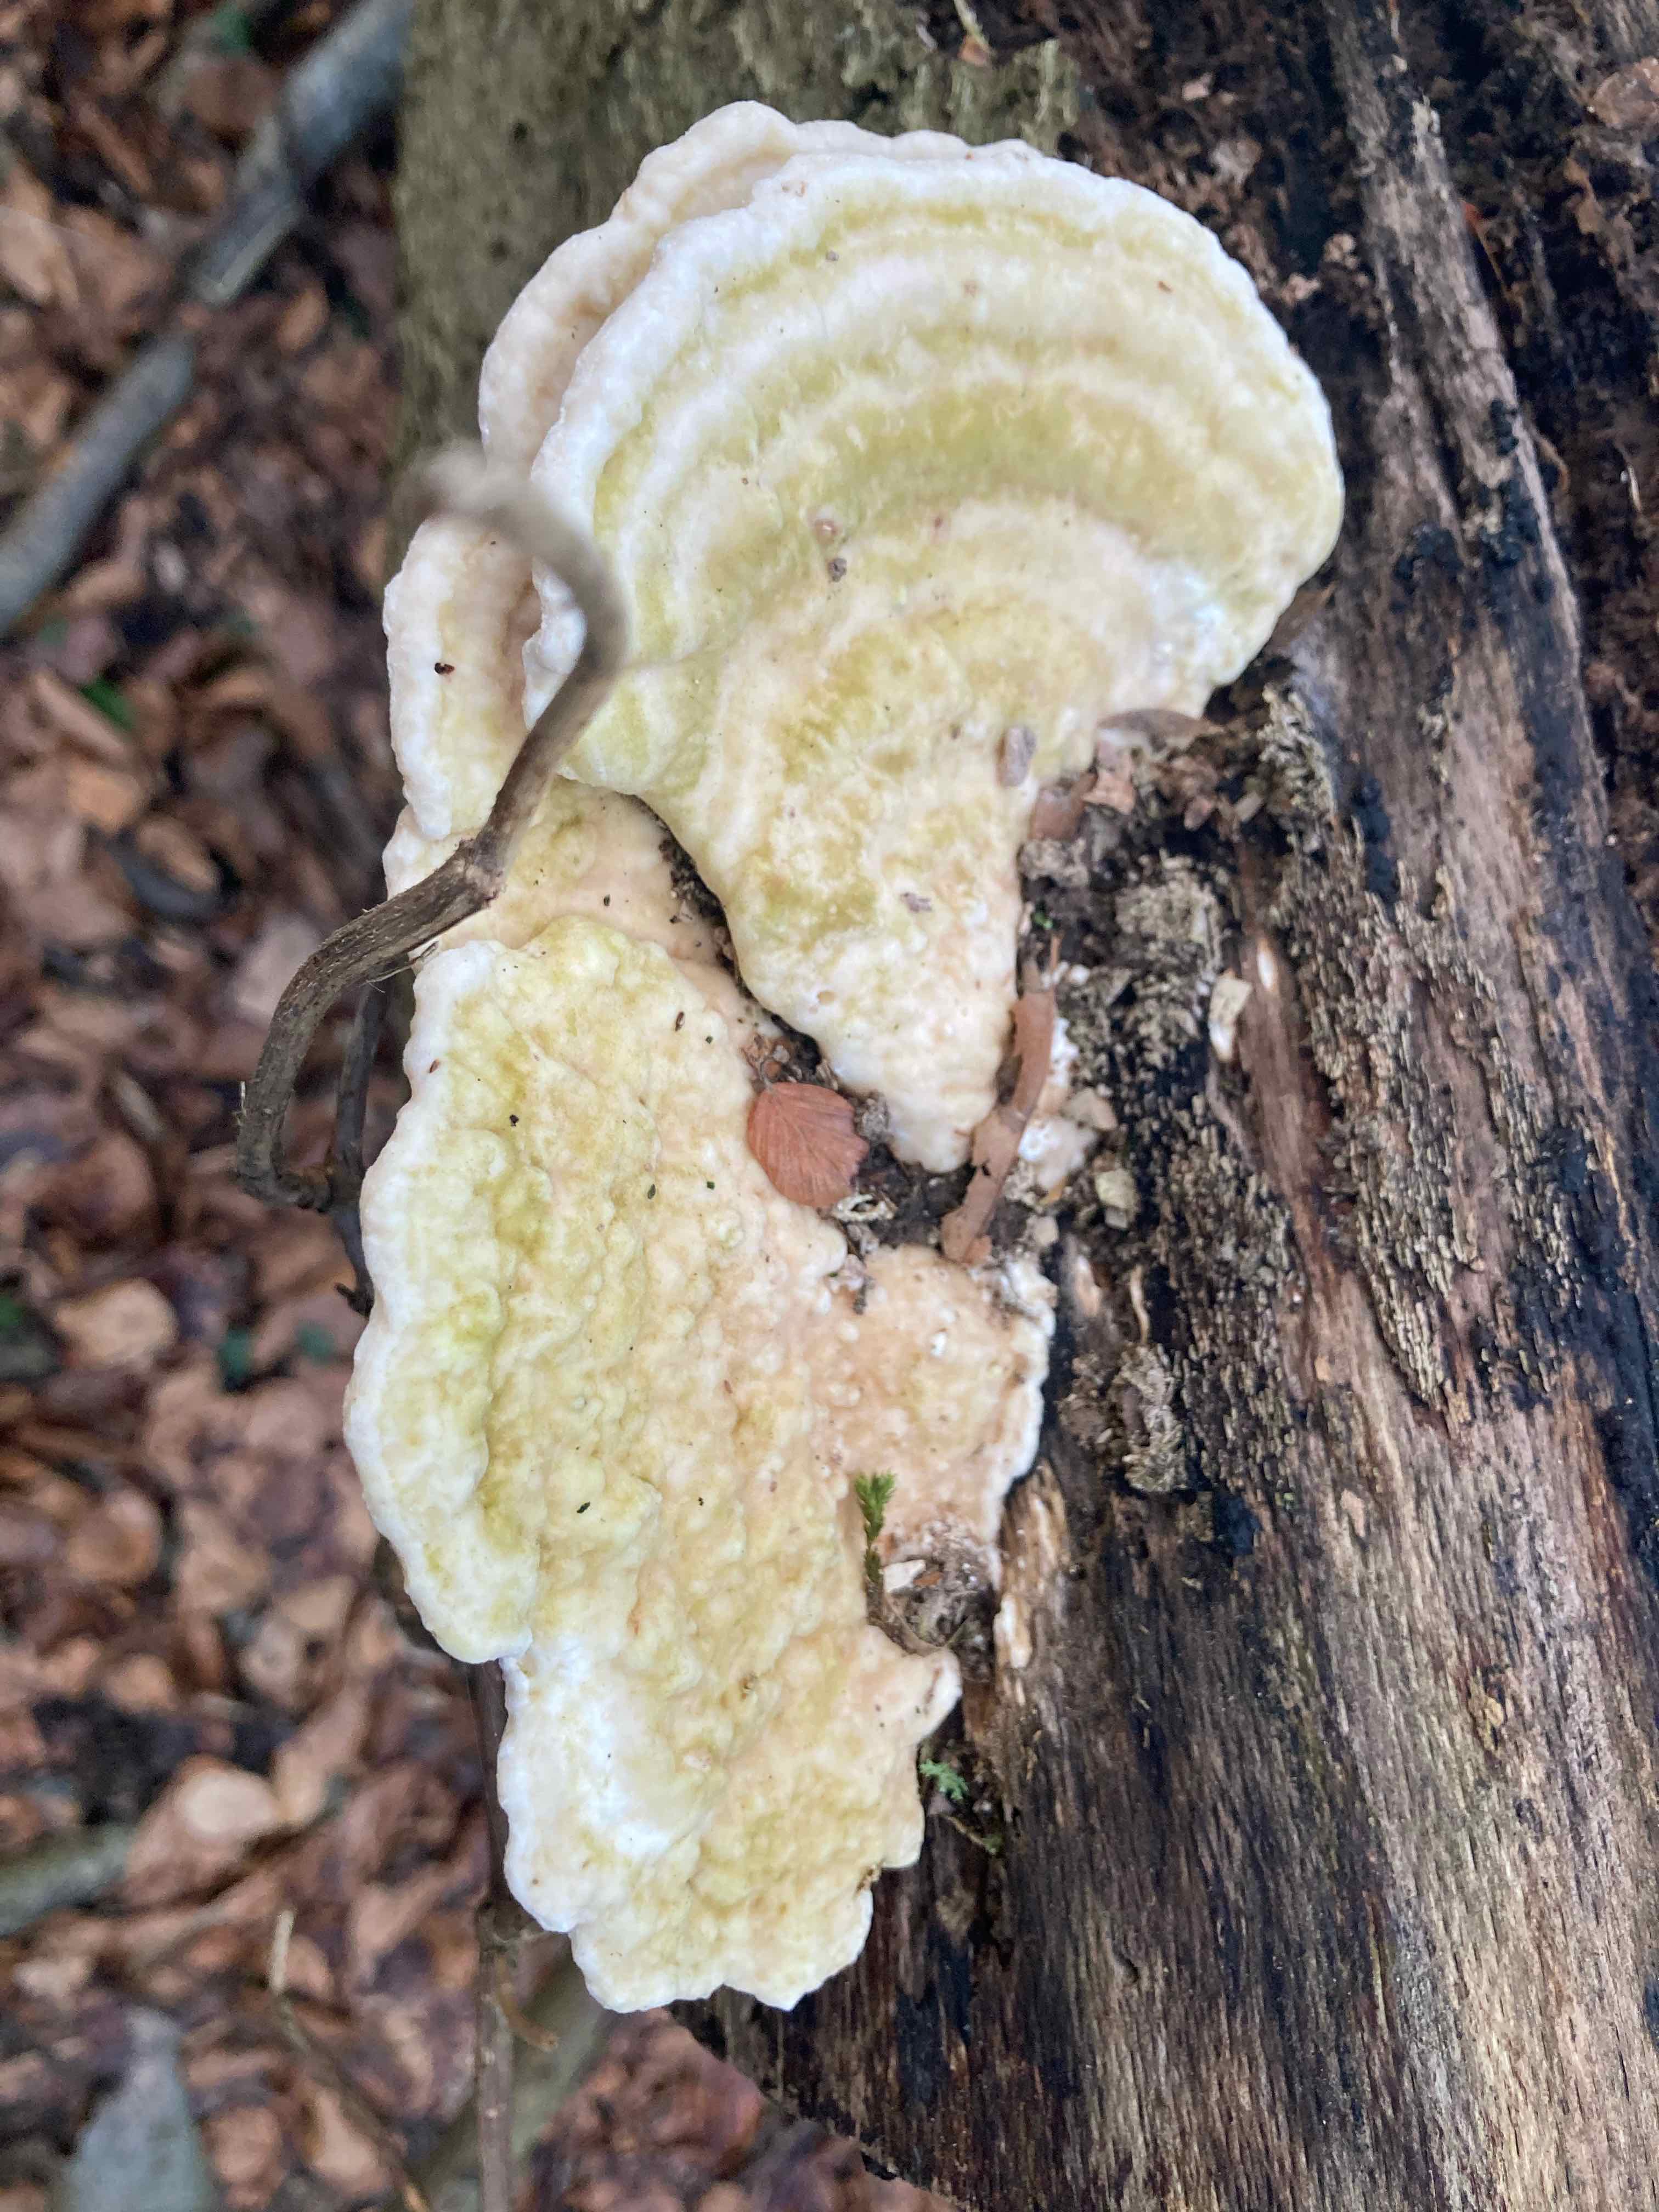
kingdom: Fungi
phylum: Basidiomycota
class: Agaricomycetes
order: Polyporales
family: Polyporaceae
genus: Trametes
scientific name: Trametes
